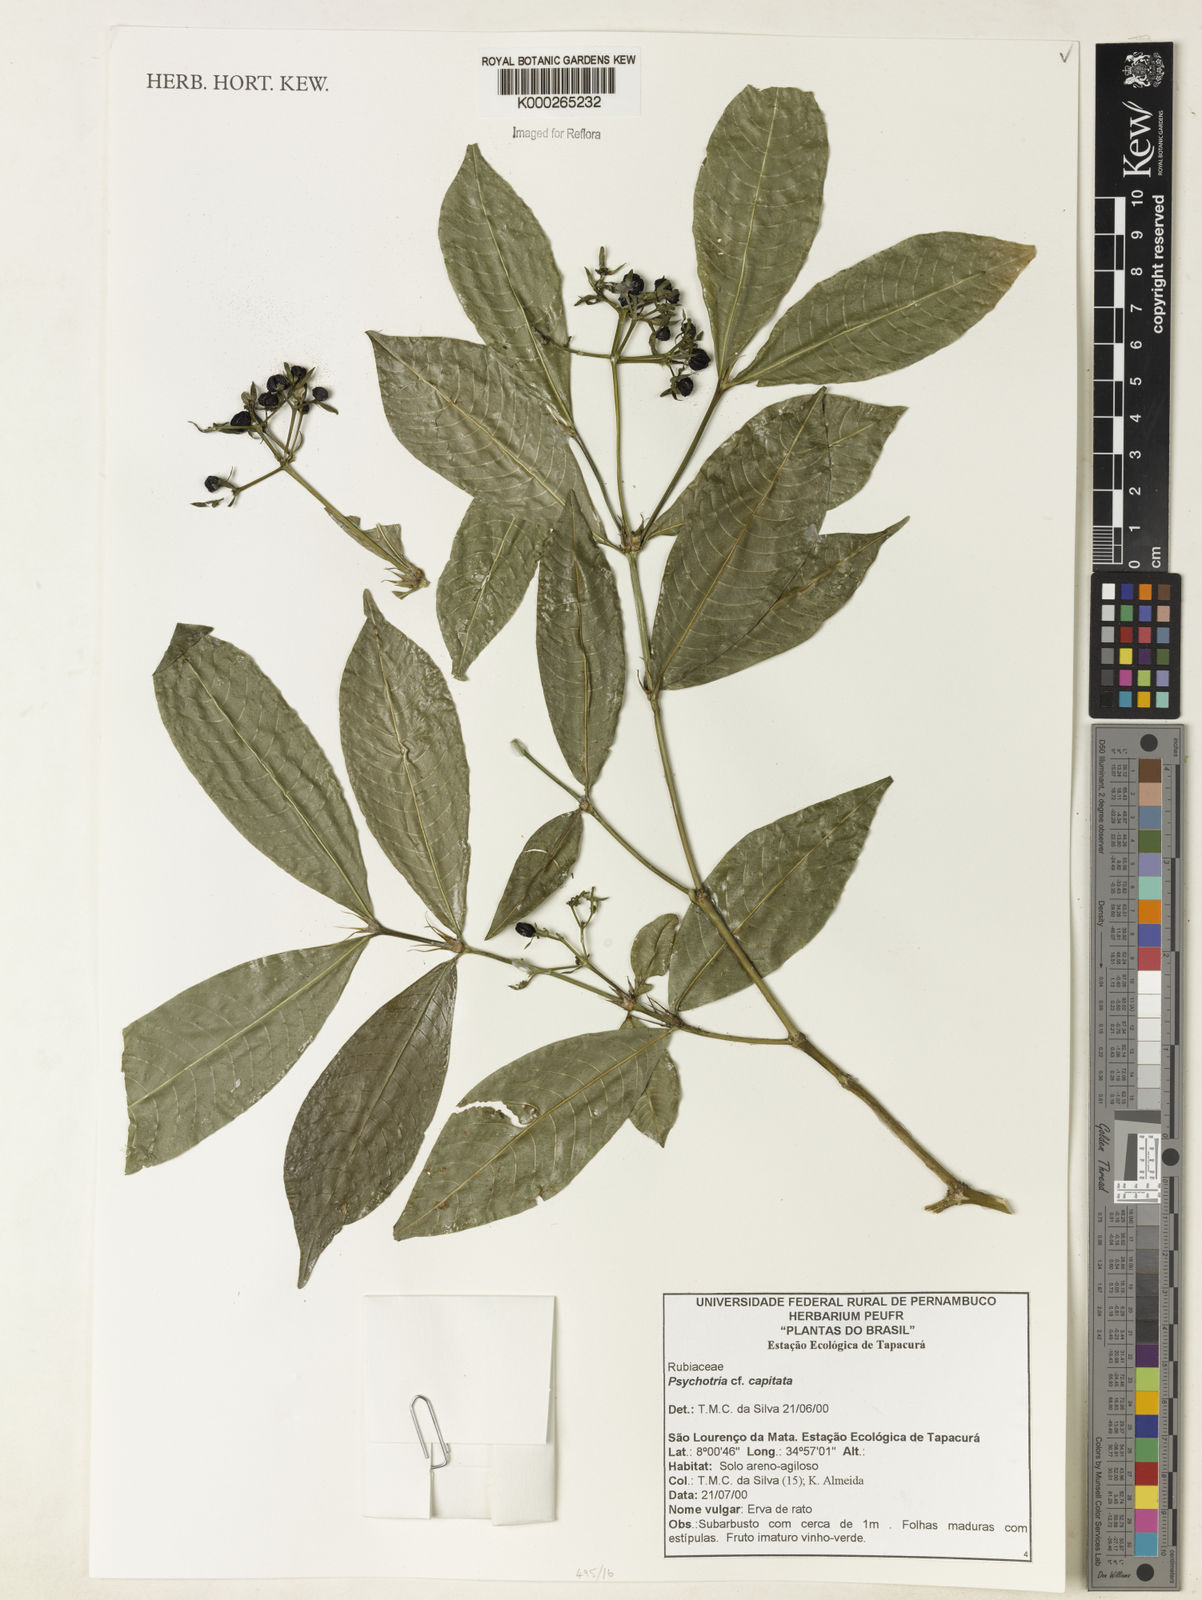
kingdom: Plantae
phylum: Tracheophyta
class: Magnoliopsida
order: Gentianales
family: Rubiaceae
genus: Psychotria
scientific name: Psychotria
